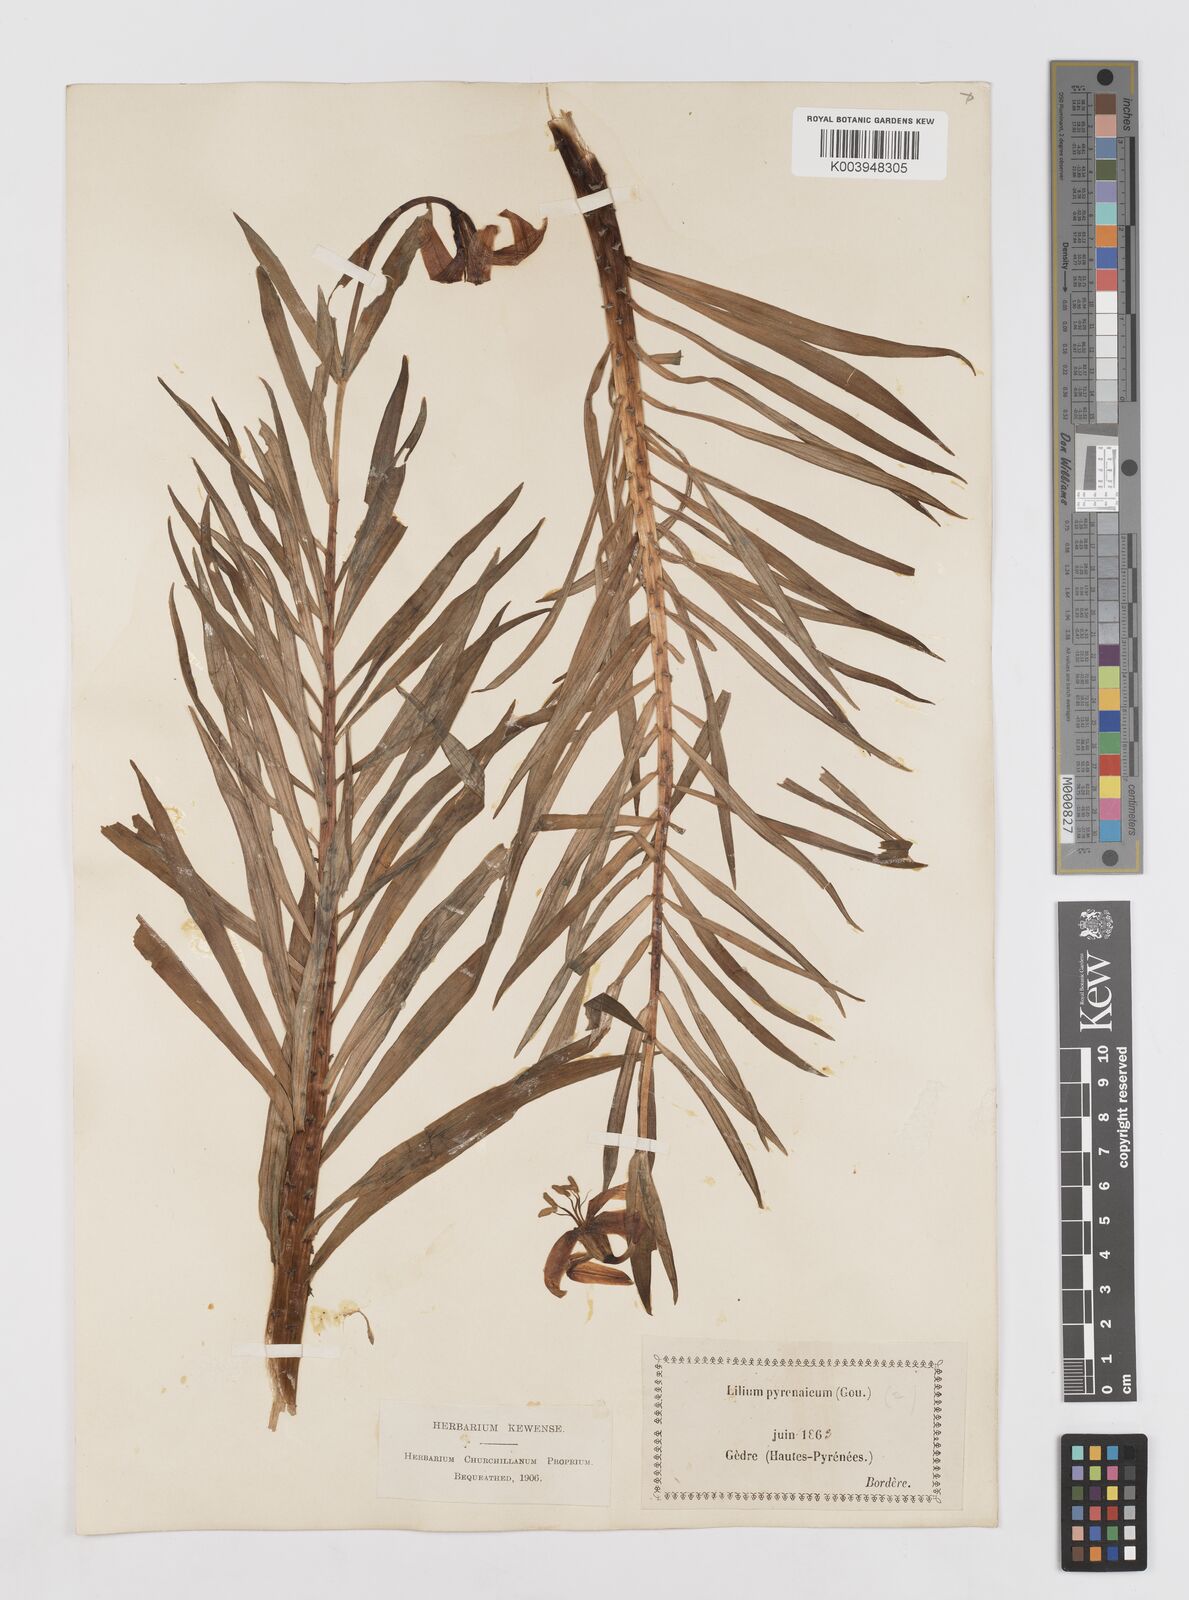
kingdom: Plantae
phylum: Tracheophyta
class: Liliopsida
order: Liliales
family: Liliaceae
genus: Lilium
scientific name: Lilium pyrenaicum
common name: Pyrenean lily
